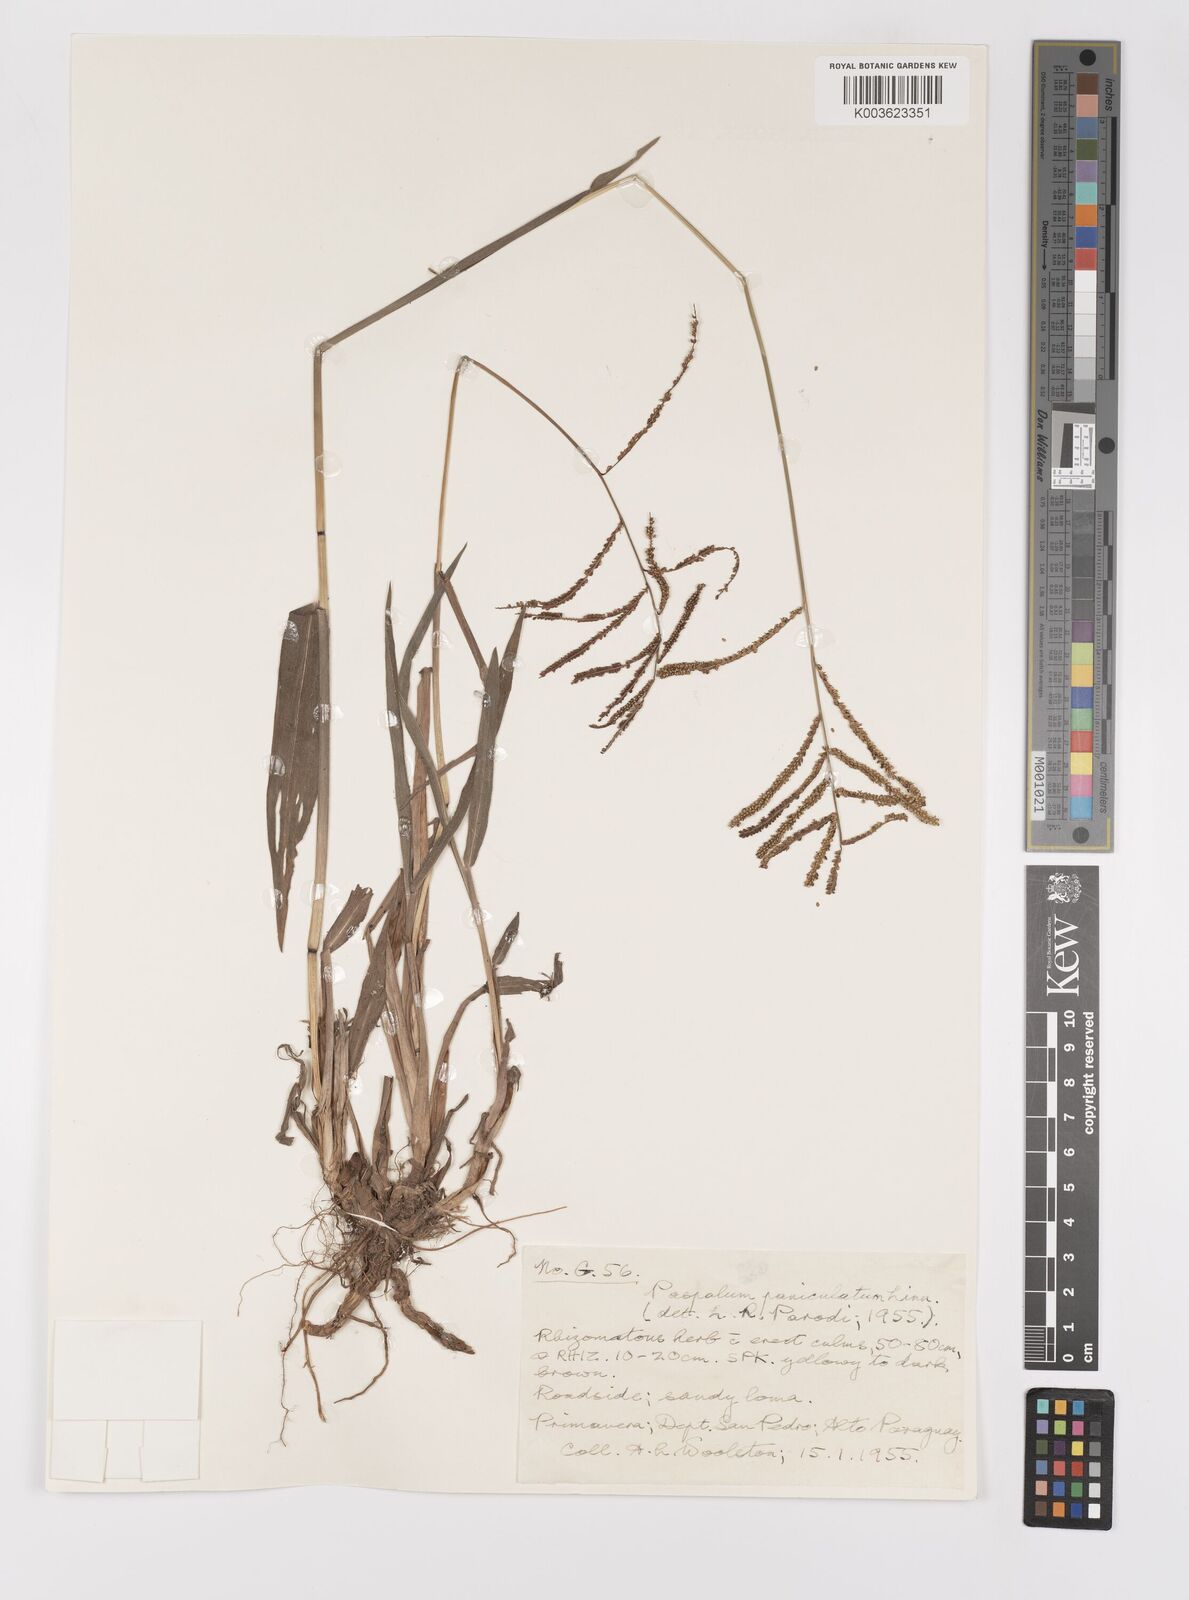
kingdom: Plantae
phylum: Tracheophyta
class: Liliopsida
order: Poales
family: Poaceae
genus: Paspalum
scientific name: Paspalum juergensii
